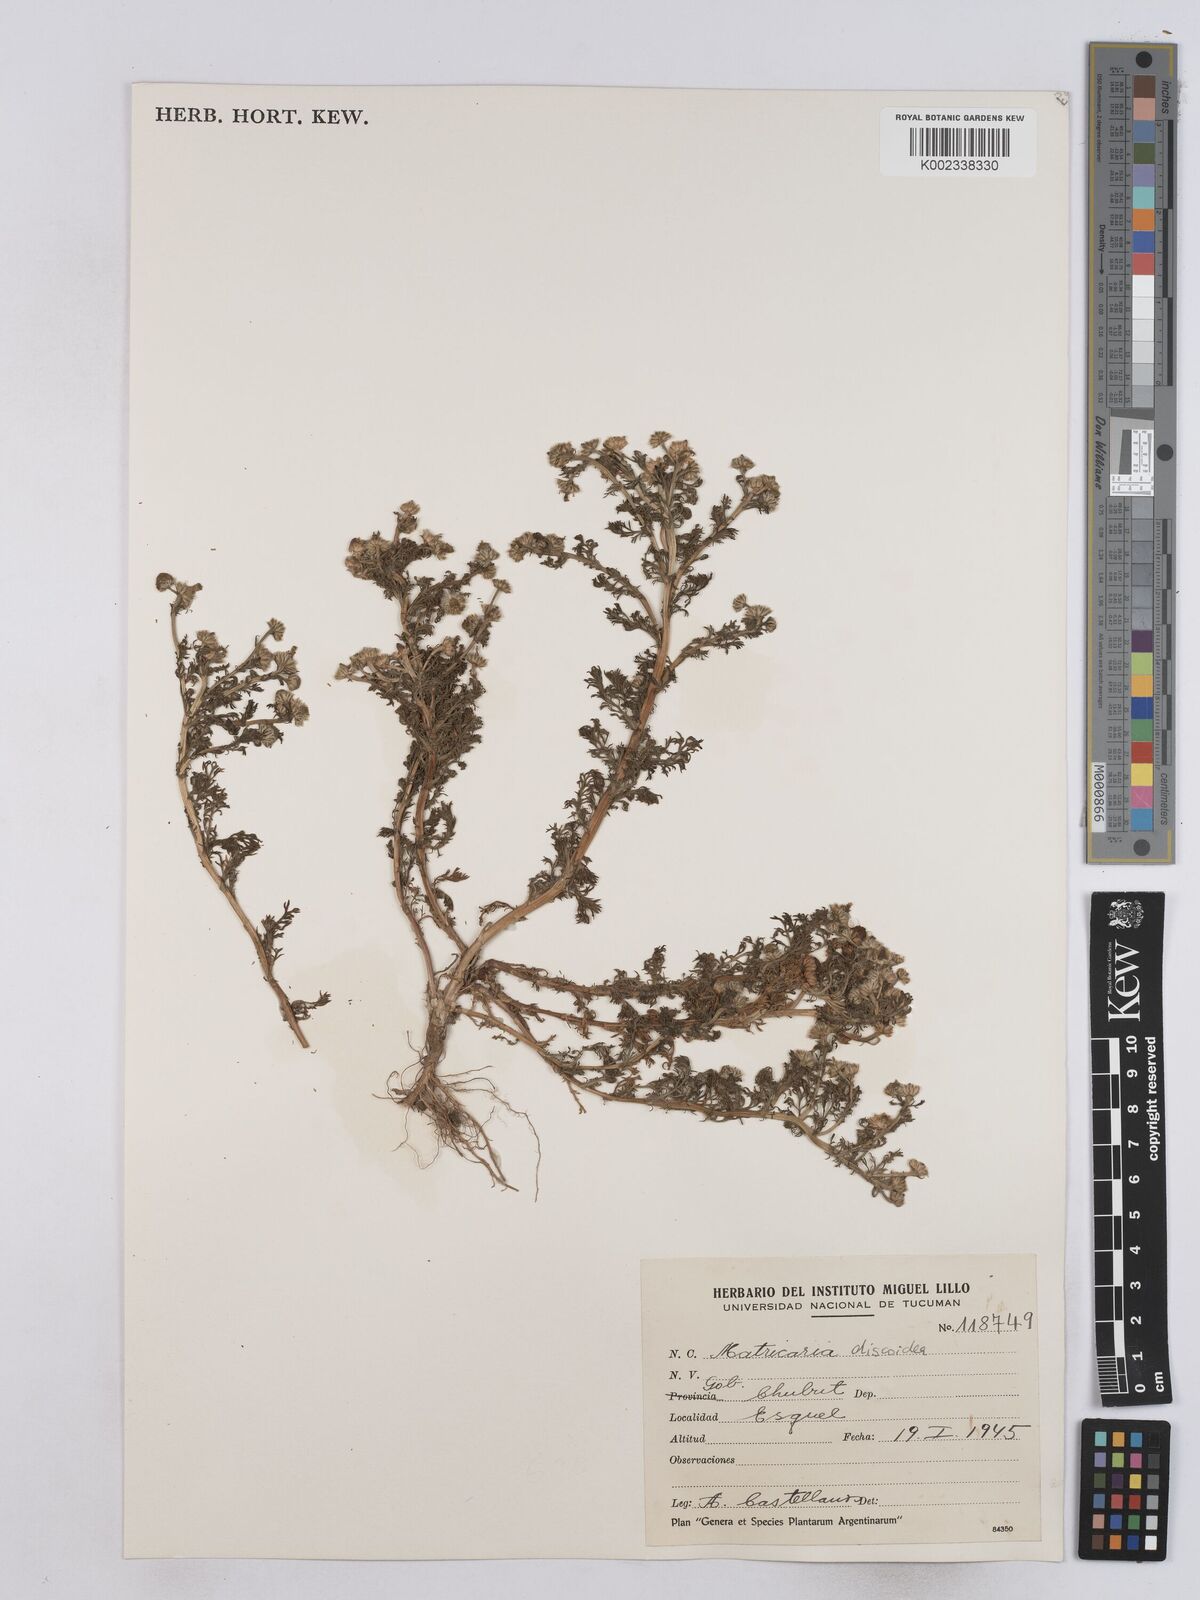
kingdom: Plantae
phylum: Tracheophyta
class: Magnoliopsida
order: Asterales
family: Asteraceae
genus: Matricaria
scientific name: Matricaria discoidea
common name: Disc mayweed
